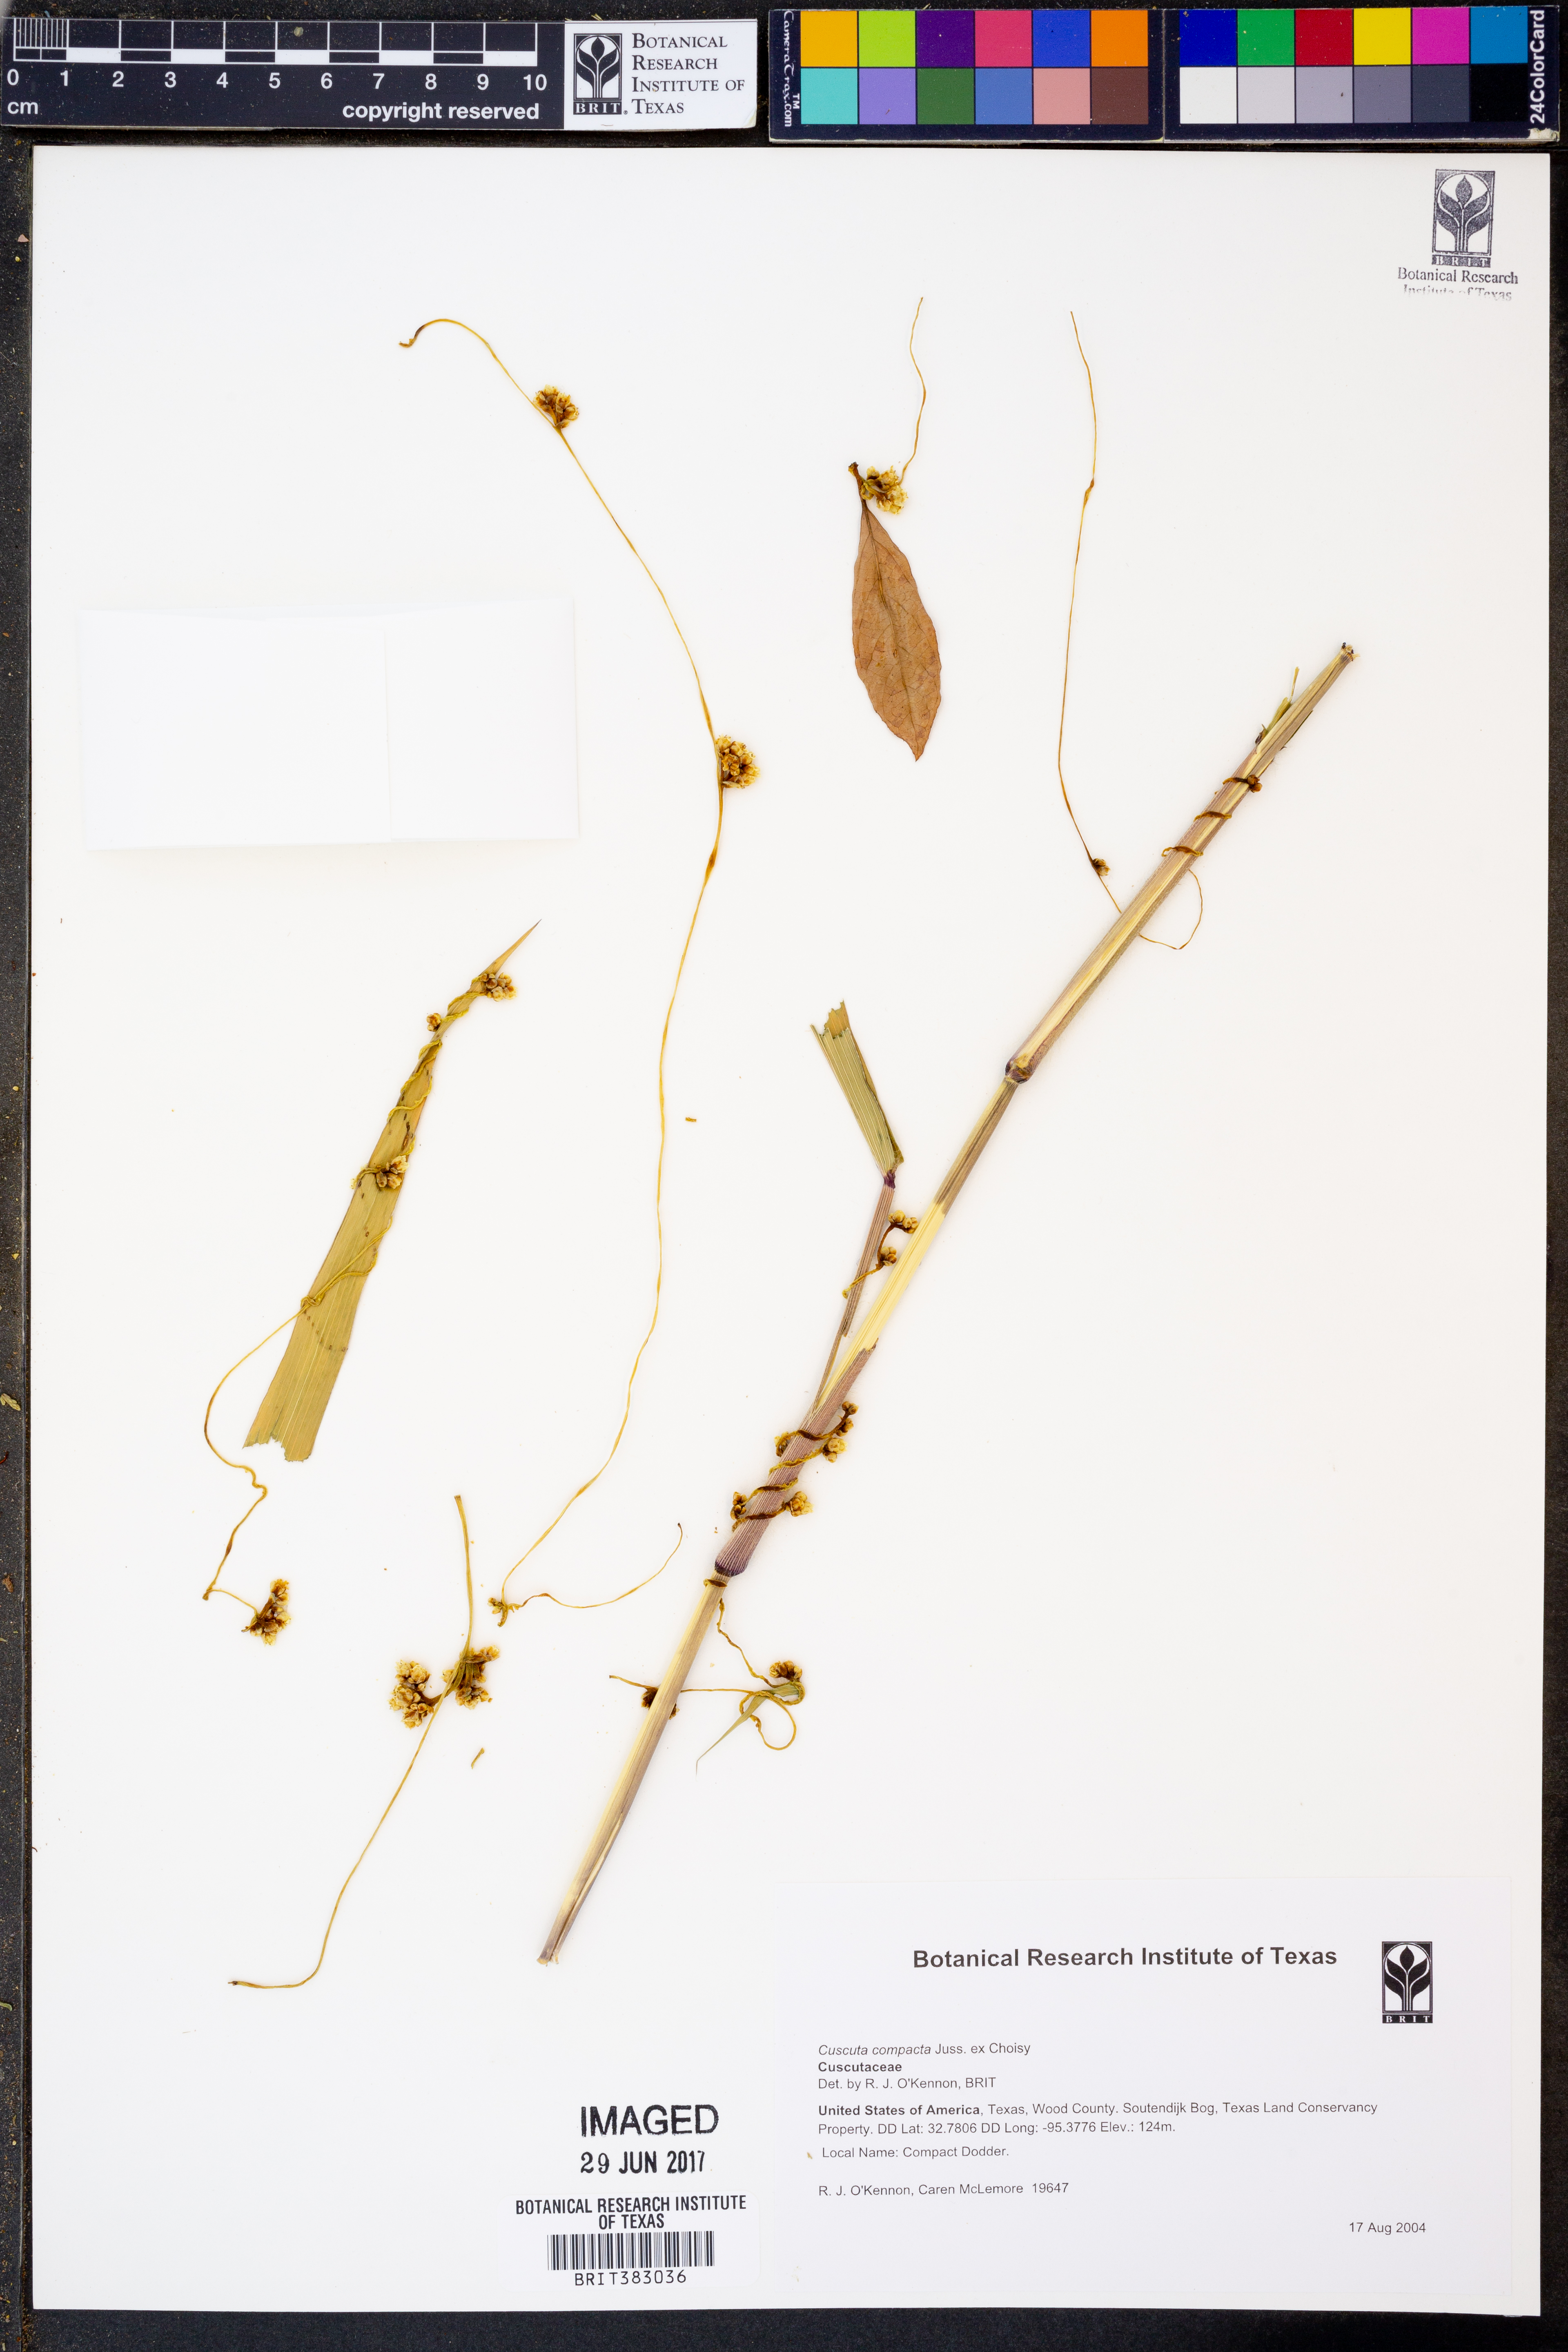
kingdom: Plantae
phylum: Tracheophyta
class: Magnoliopsida
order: Solanales
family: Convolvulaceae
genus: Cuscuta
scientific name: Cuscuta compacta
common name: Compact dodder
